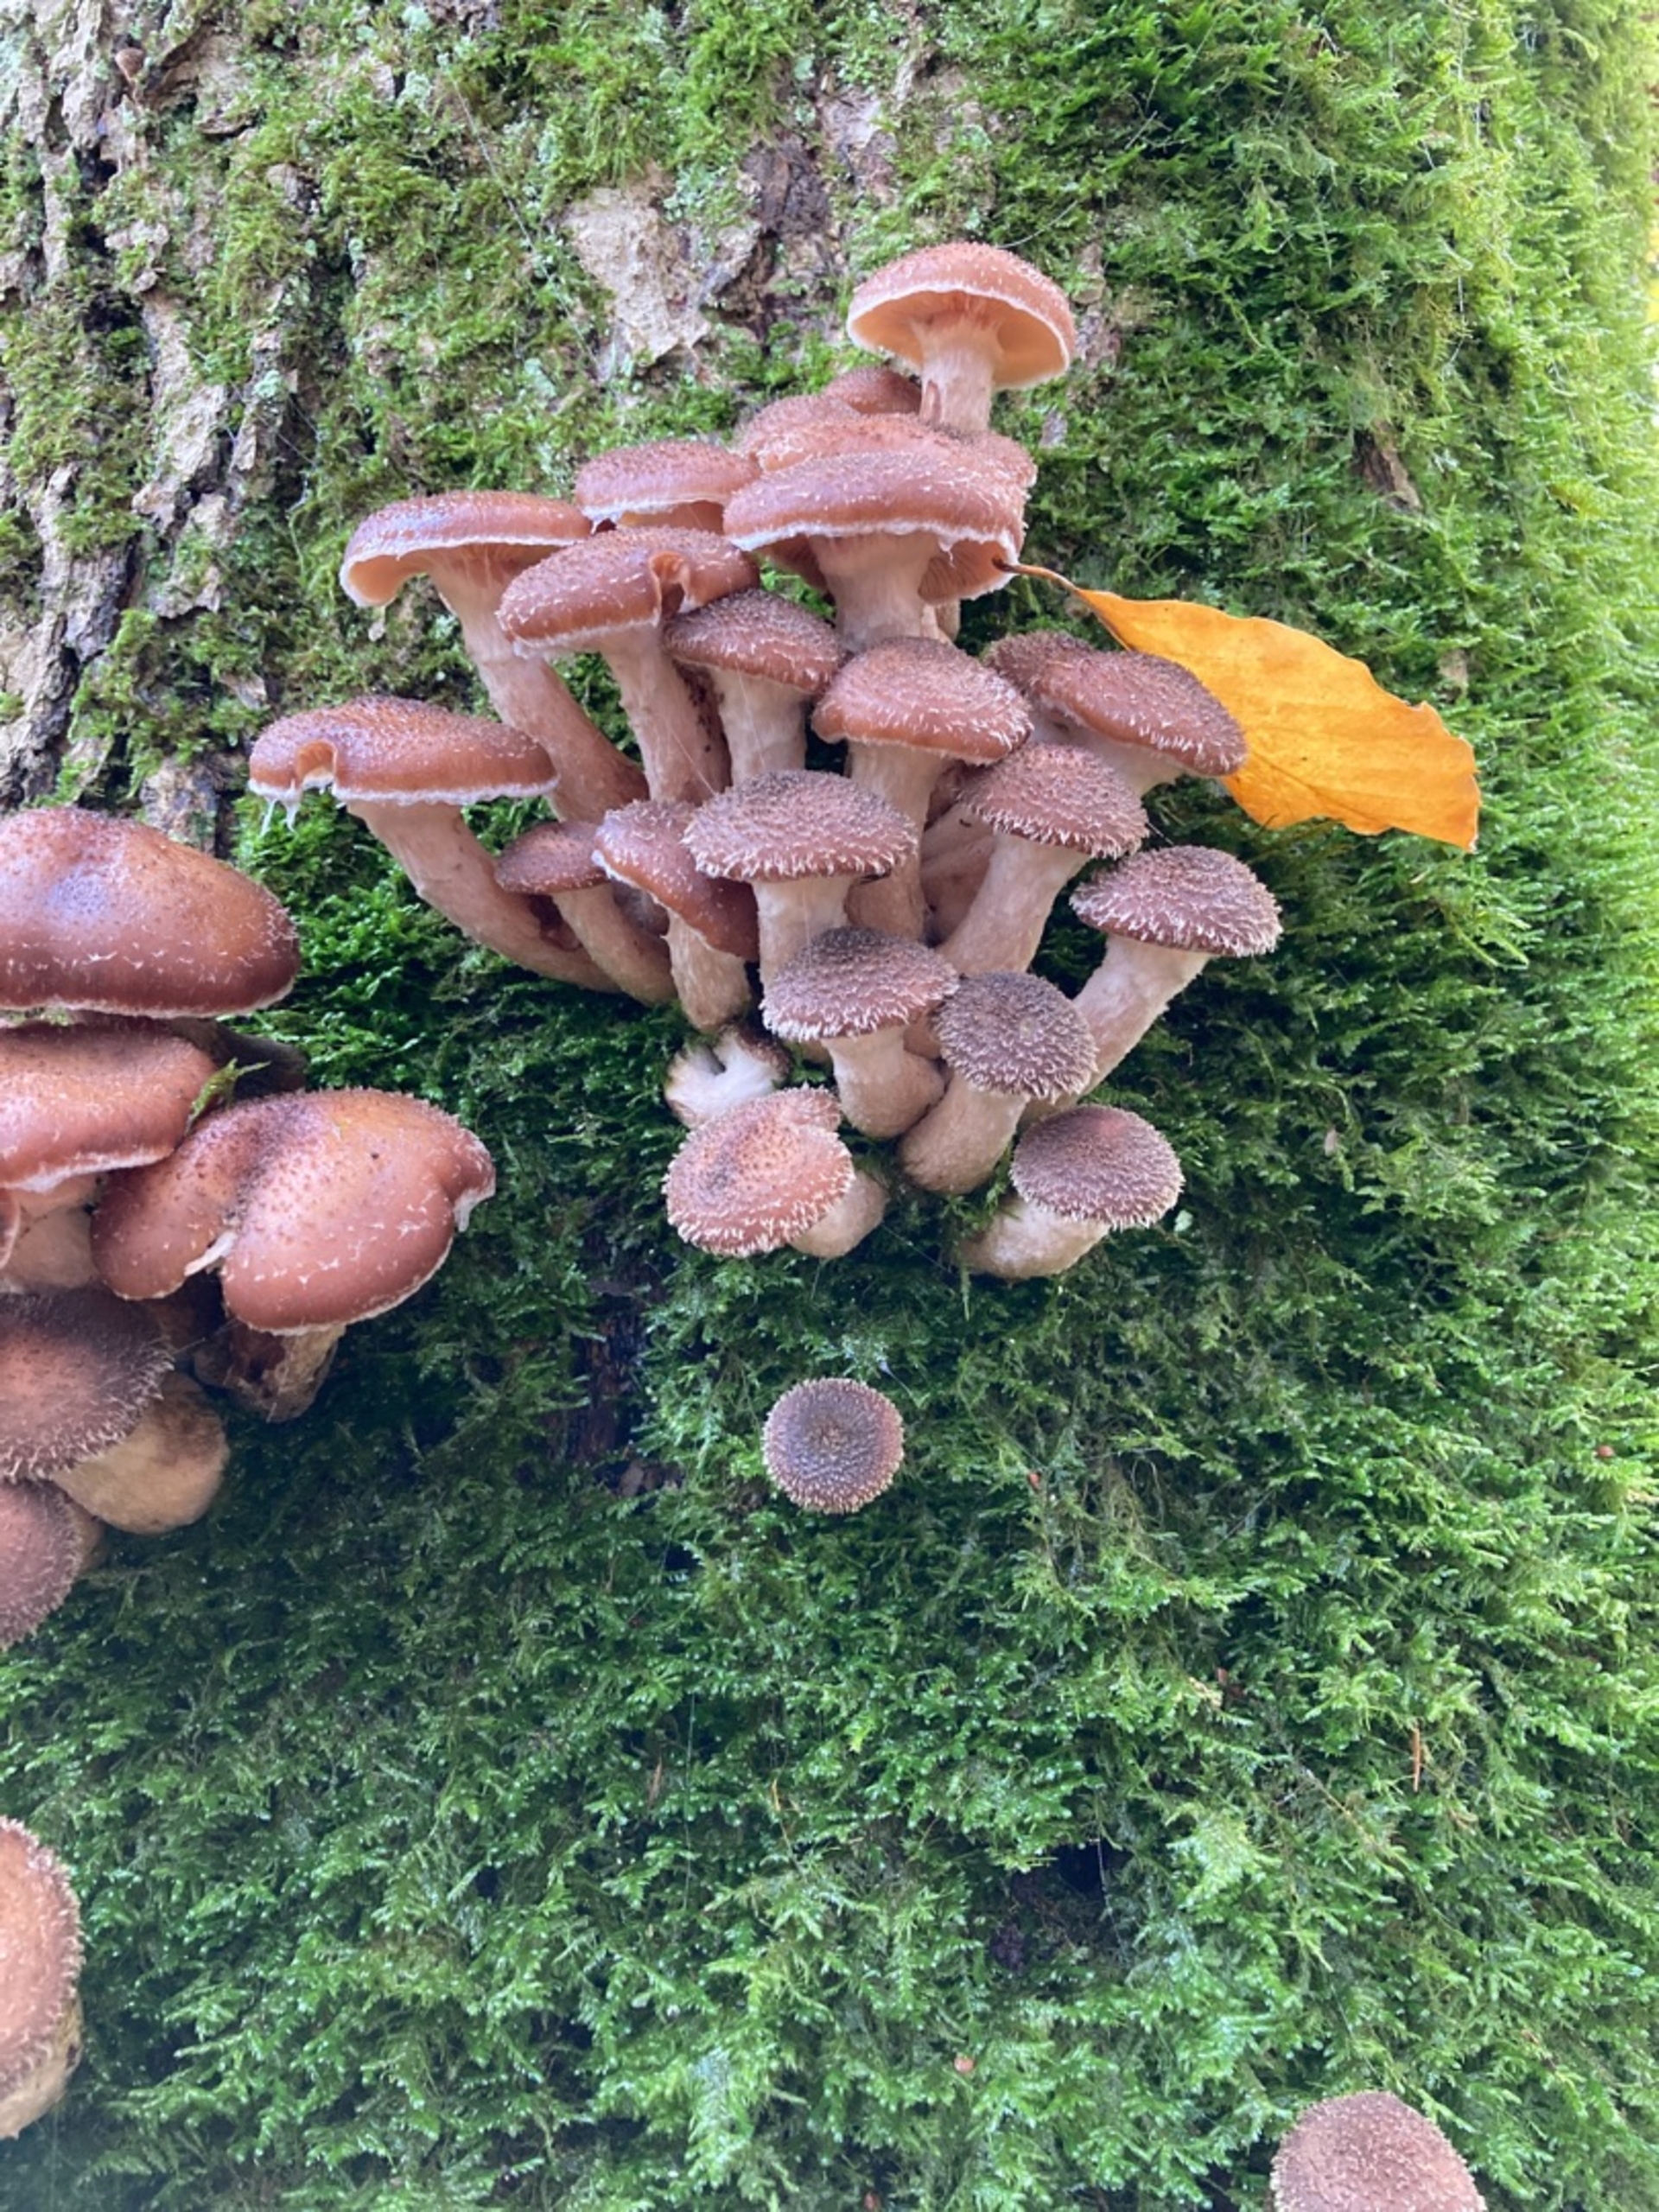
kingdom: Fungi
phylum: Basidiomycota
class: Agaricomycetes
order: Agaricales
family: Physalacriaceae
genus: Armillaria
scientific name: Armillaria
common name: Honningsvamp
